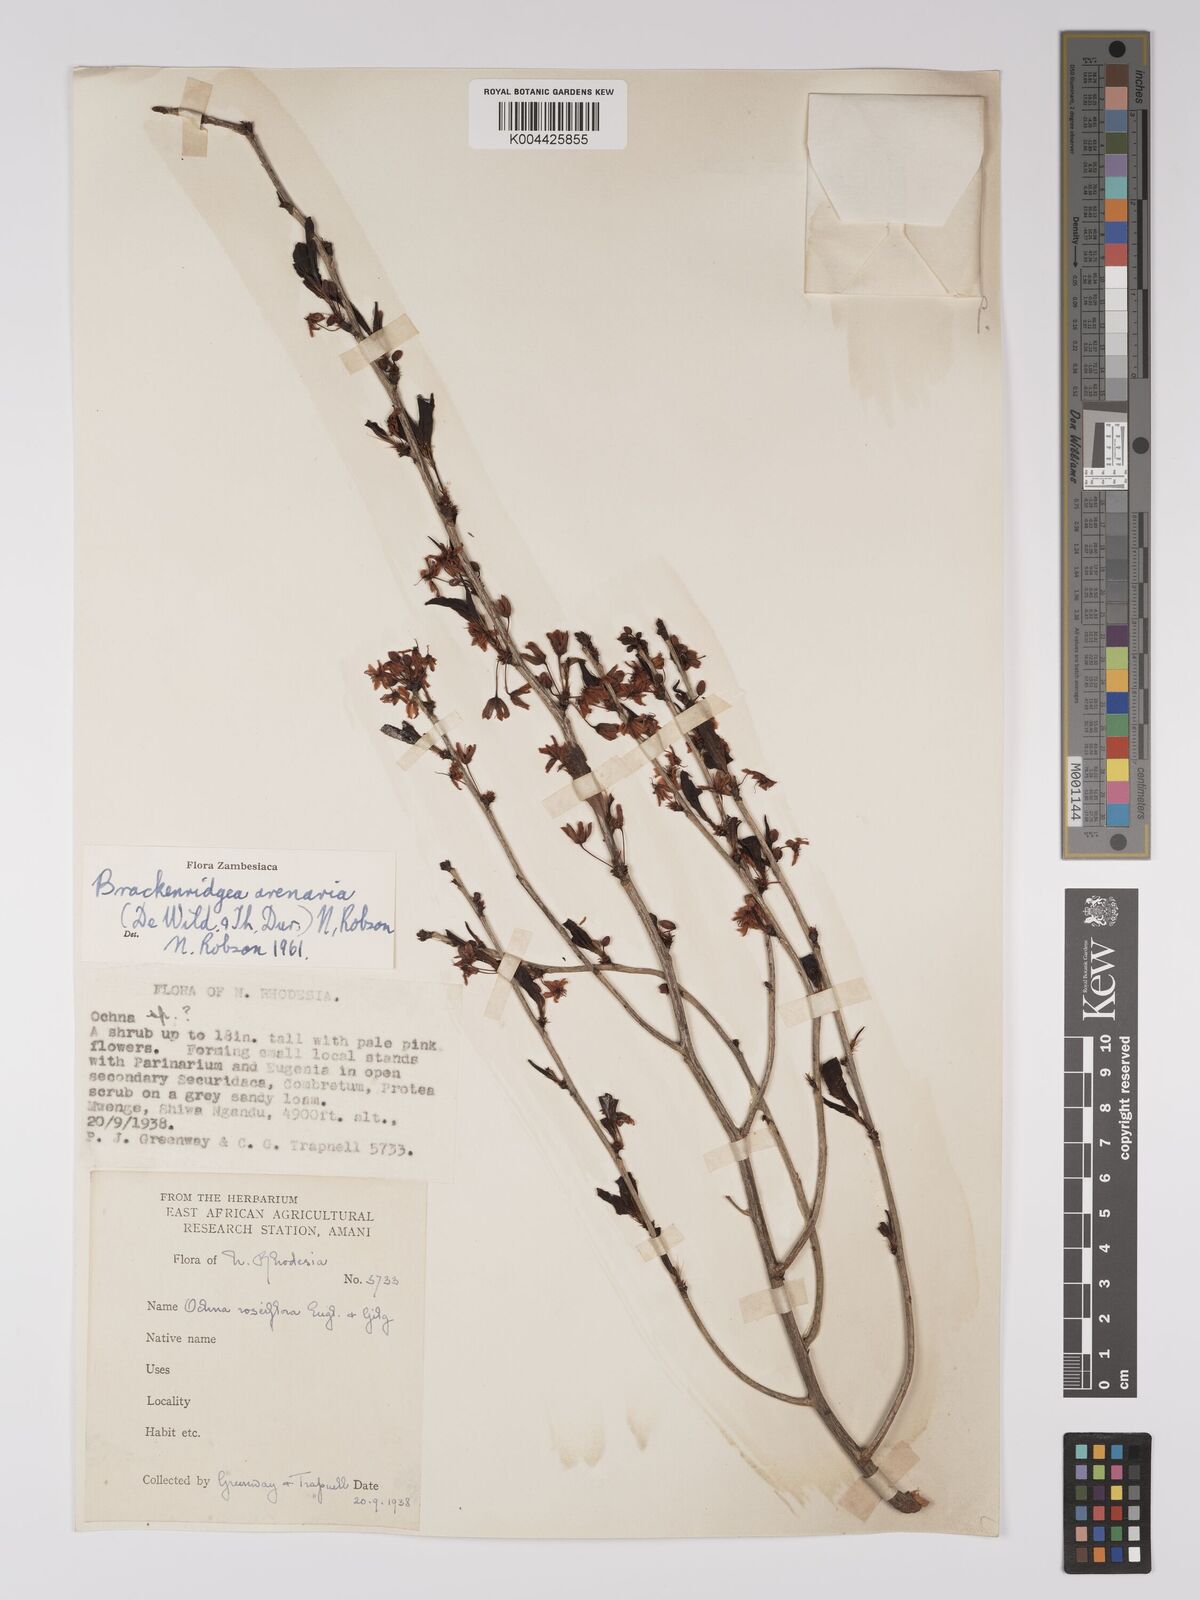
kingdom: Plantae
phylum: Tracheophyta
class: Magnoliopsida
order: Malpighiales
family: Ochnaceae
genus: Ochna
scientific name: Ochna arenaria
